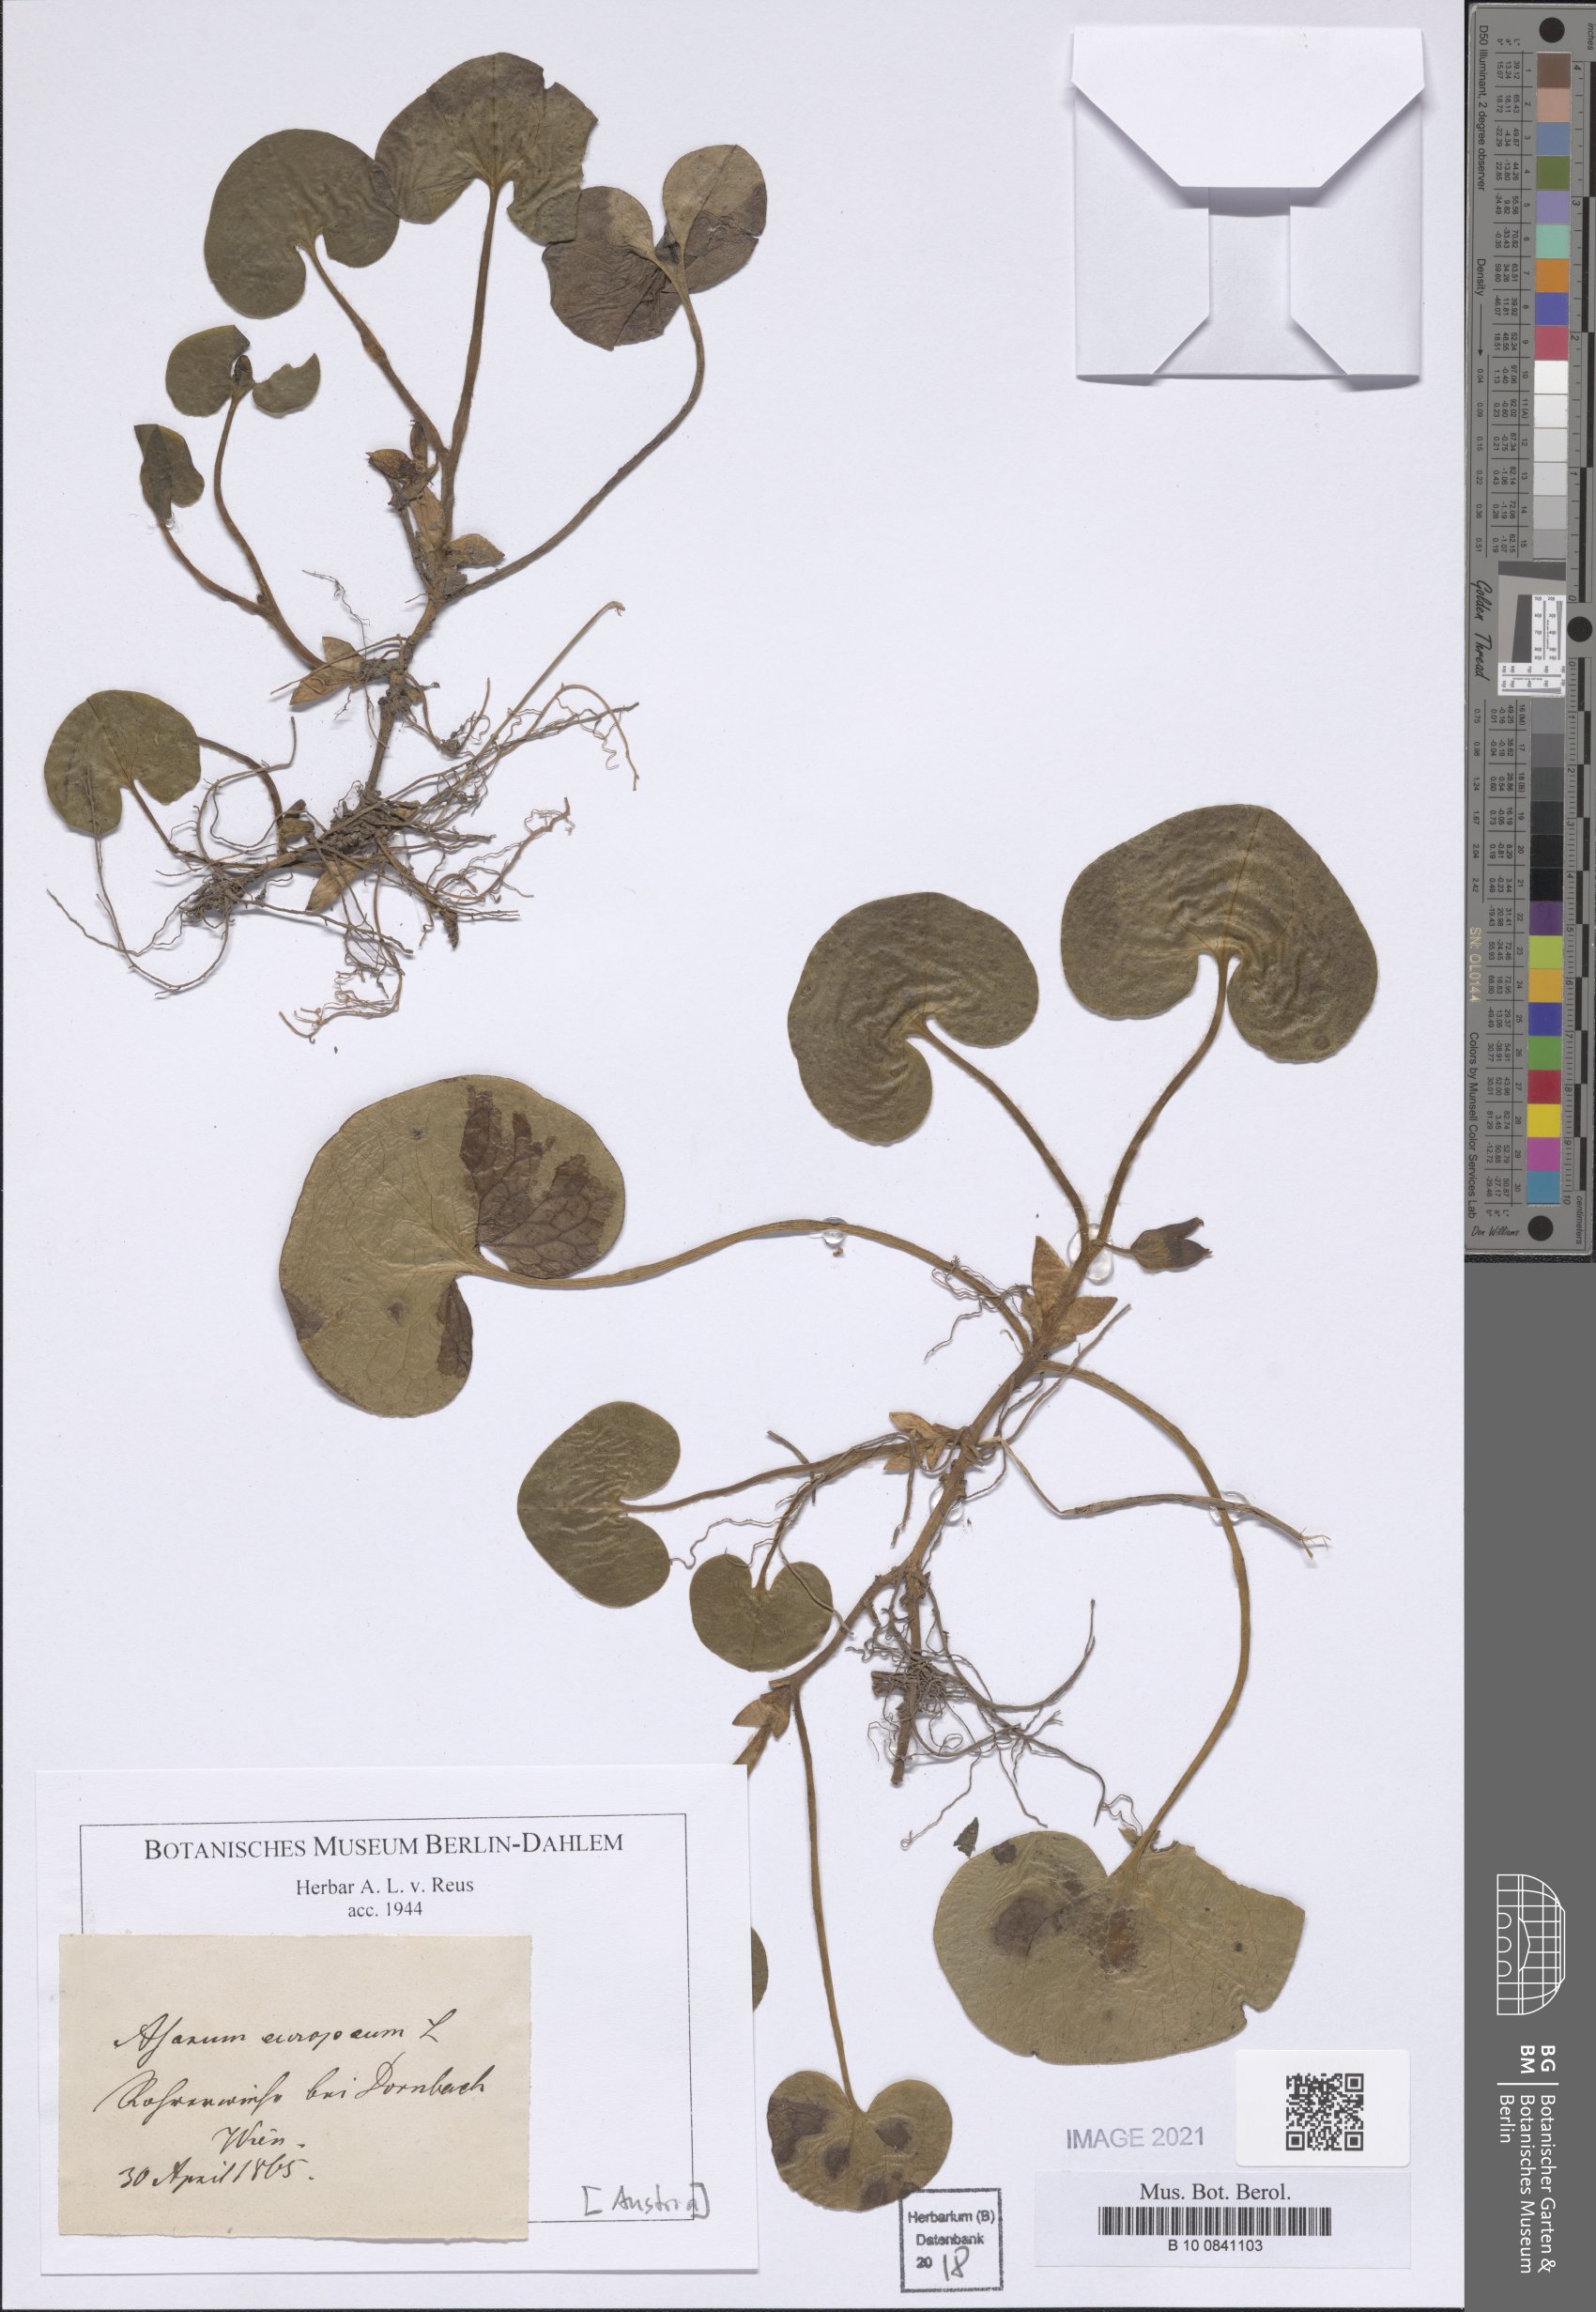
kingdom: Plantae
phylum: Tracheophyta
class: Magnoliopsida
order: Piperales
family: Aristolochiaceae
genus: Asarum
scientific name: Asarum europaeum
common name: Asarabacca
